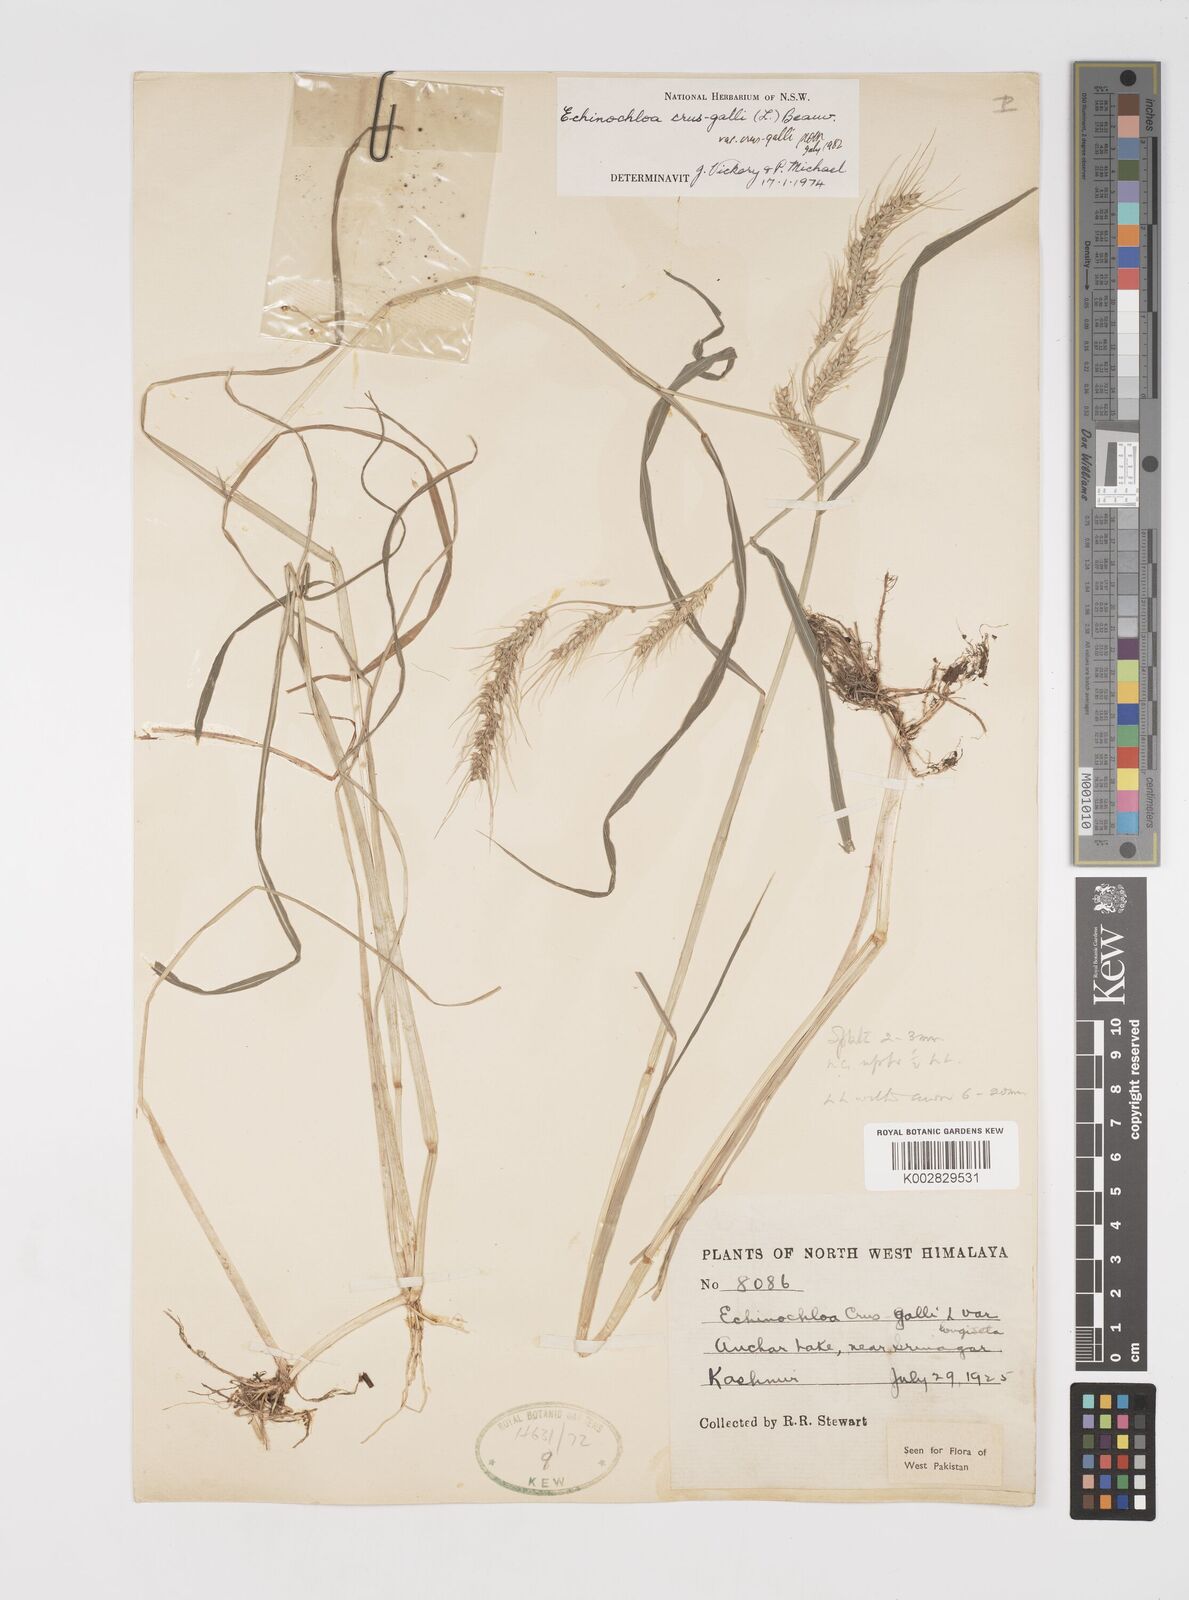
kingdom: Plantae
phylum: Tracheophyta
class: Liliopsida
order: Poales
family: Poaceae
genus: Echinochloa
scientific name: Echinochloa crus-galli
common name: Cockspur
